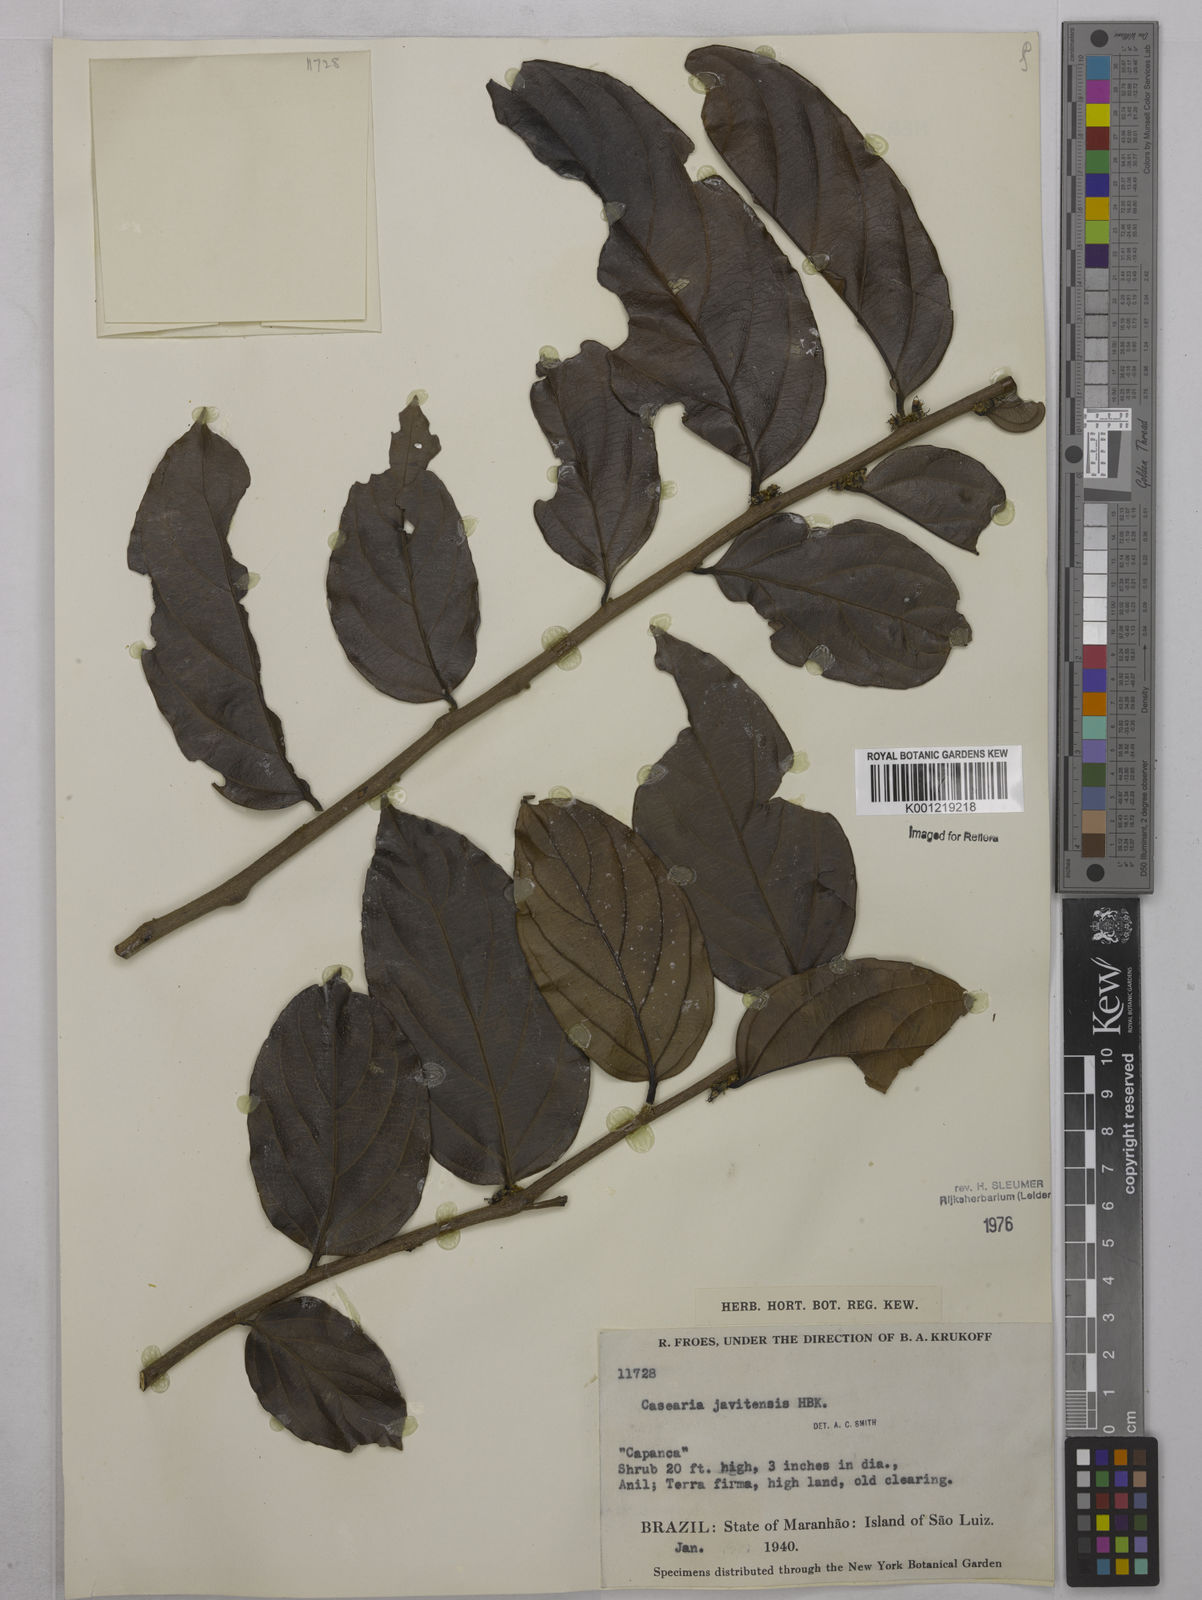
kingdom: Plantae
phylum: Tracheophyta
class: Magnoliopsida
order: Malpighiales
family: Salicaceae
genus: Piparea
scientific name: Piparea multiflora
